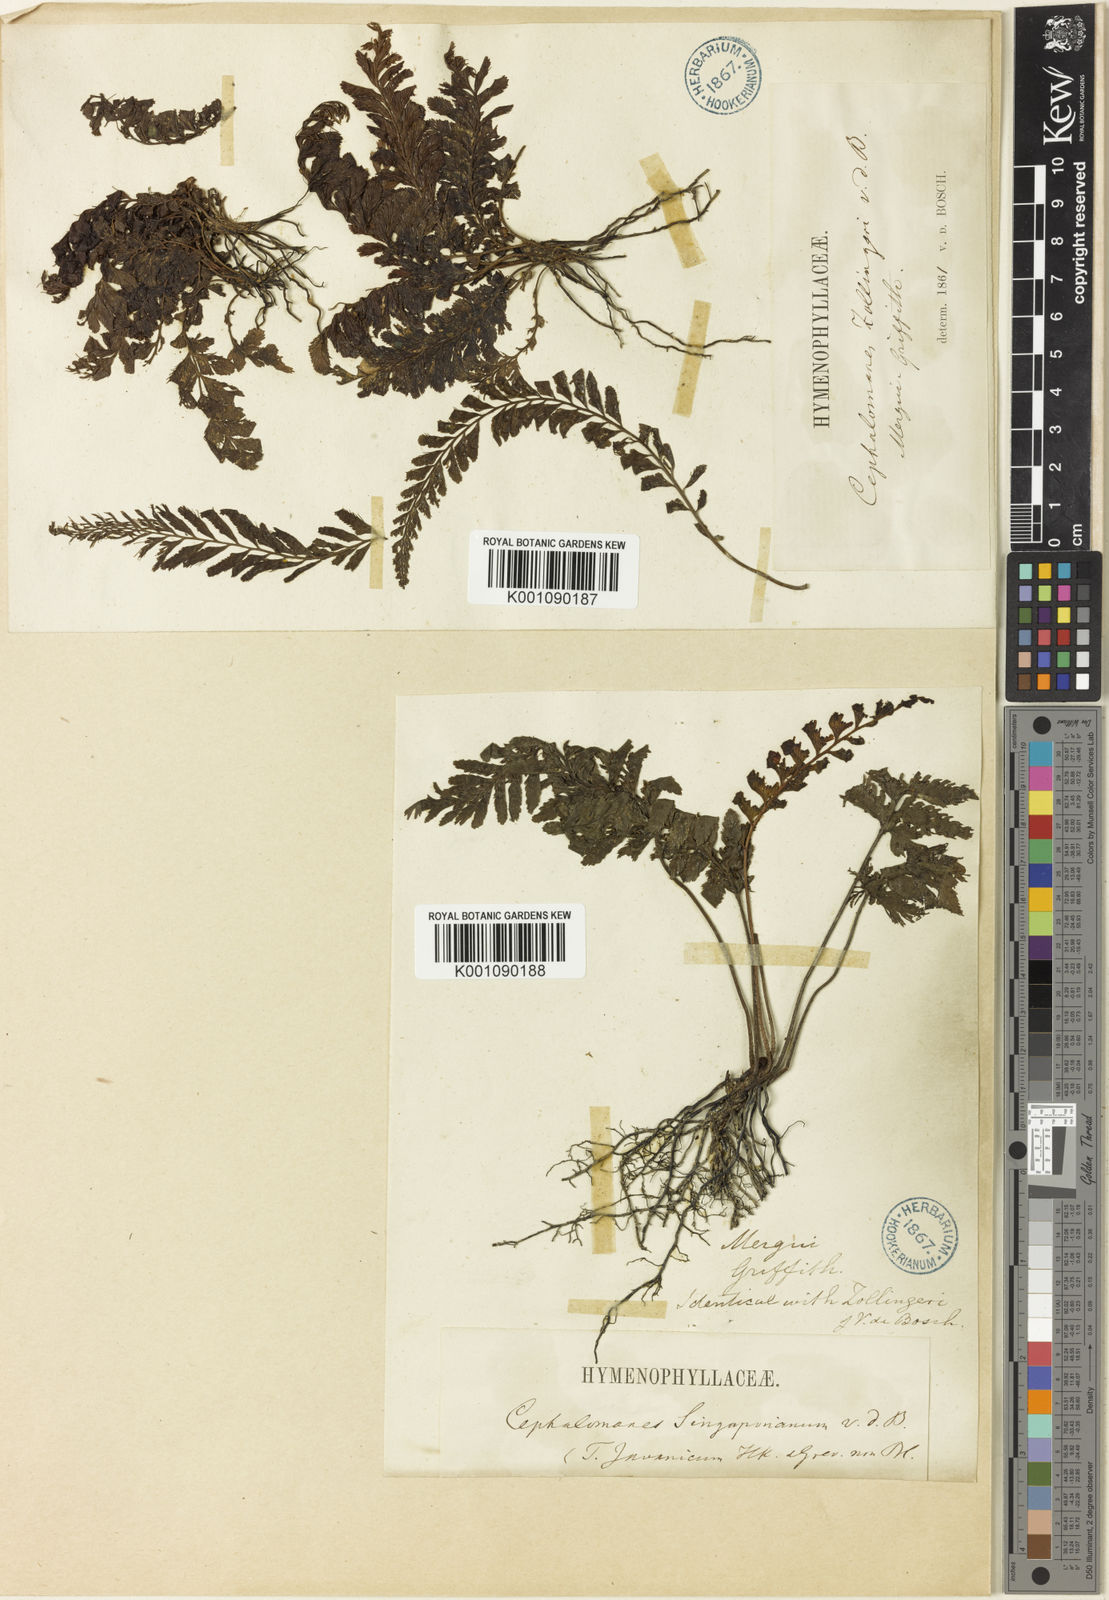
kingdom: Plantae
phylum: Tracheophyta
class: Polypodiopsida
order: Hymenophyllales
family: Hymenophyllaceae
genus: Cephalomanes
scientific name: Cephalomanes javanicum
